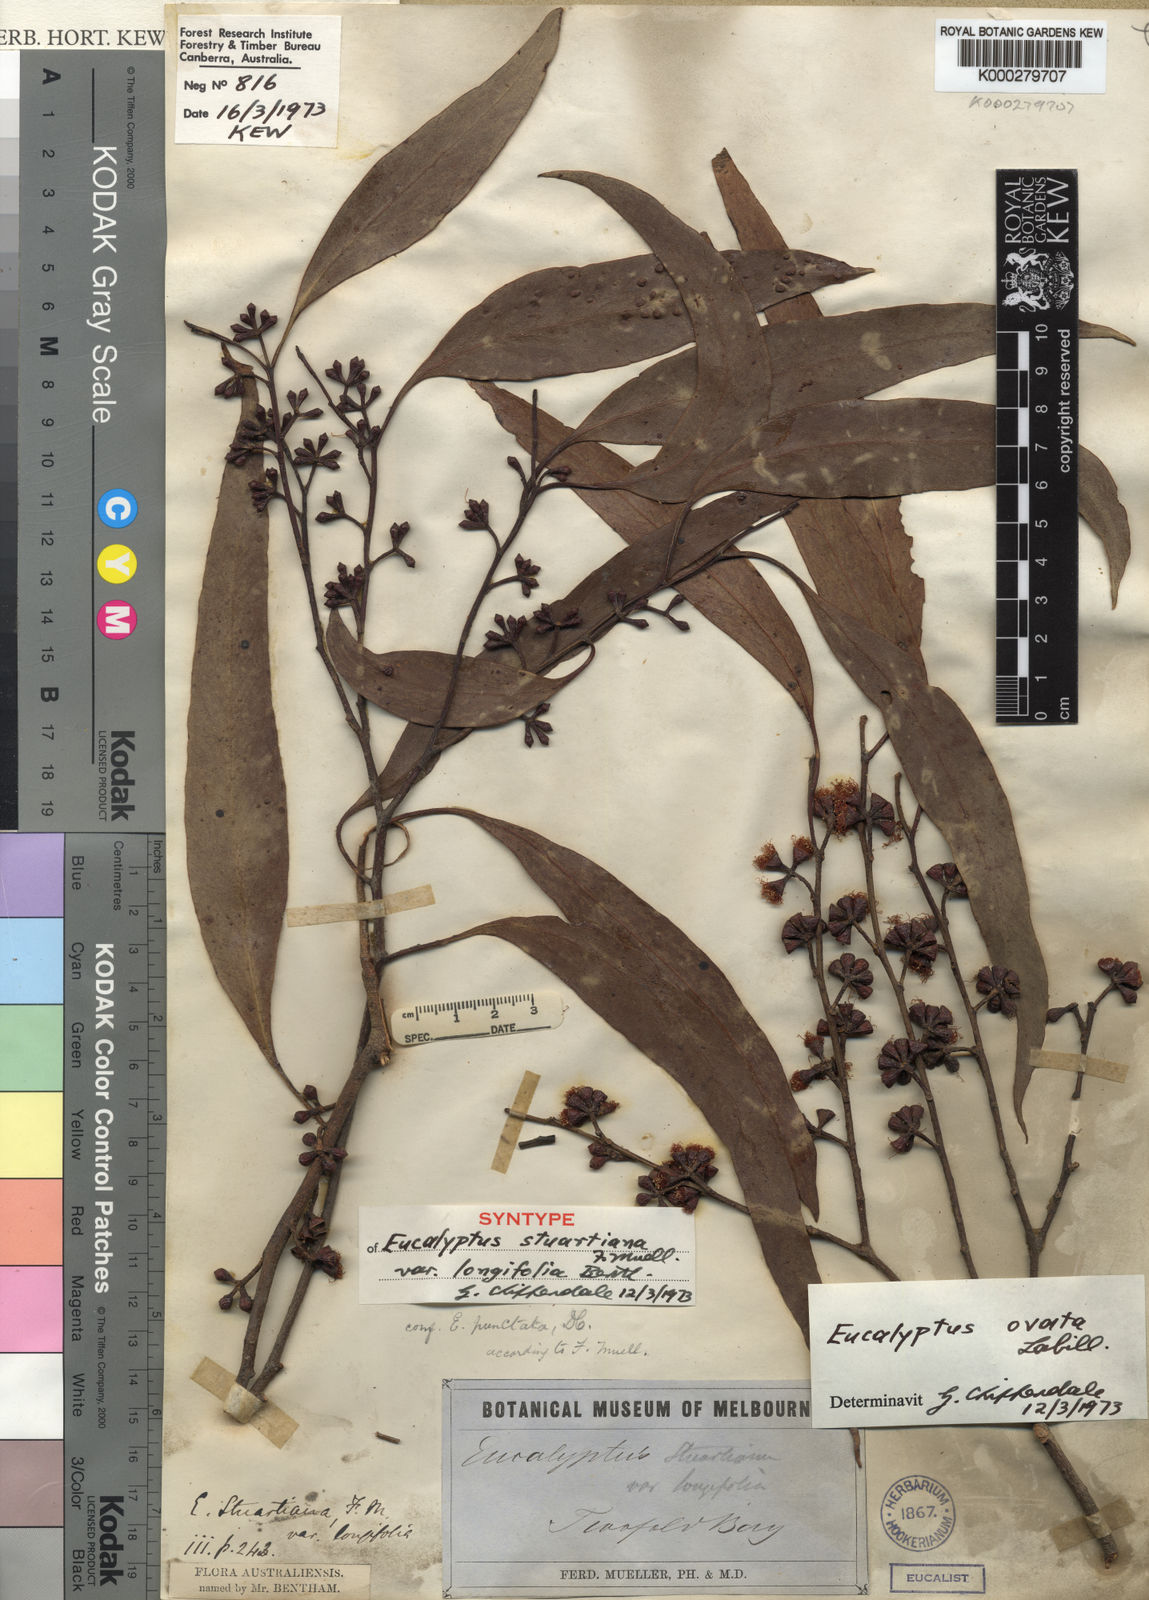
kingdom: Plantae
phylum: Tracheophyta
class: Magnoliopsida
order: Myrtales
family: Myrtaceae
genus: Eucalyptus
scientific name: Eucalyptus bridgesiana
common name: Applebox
